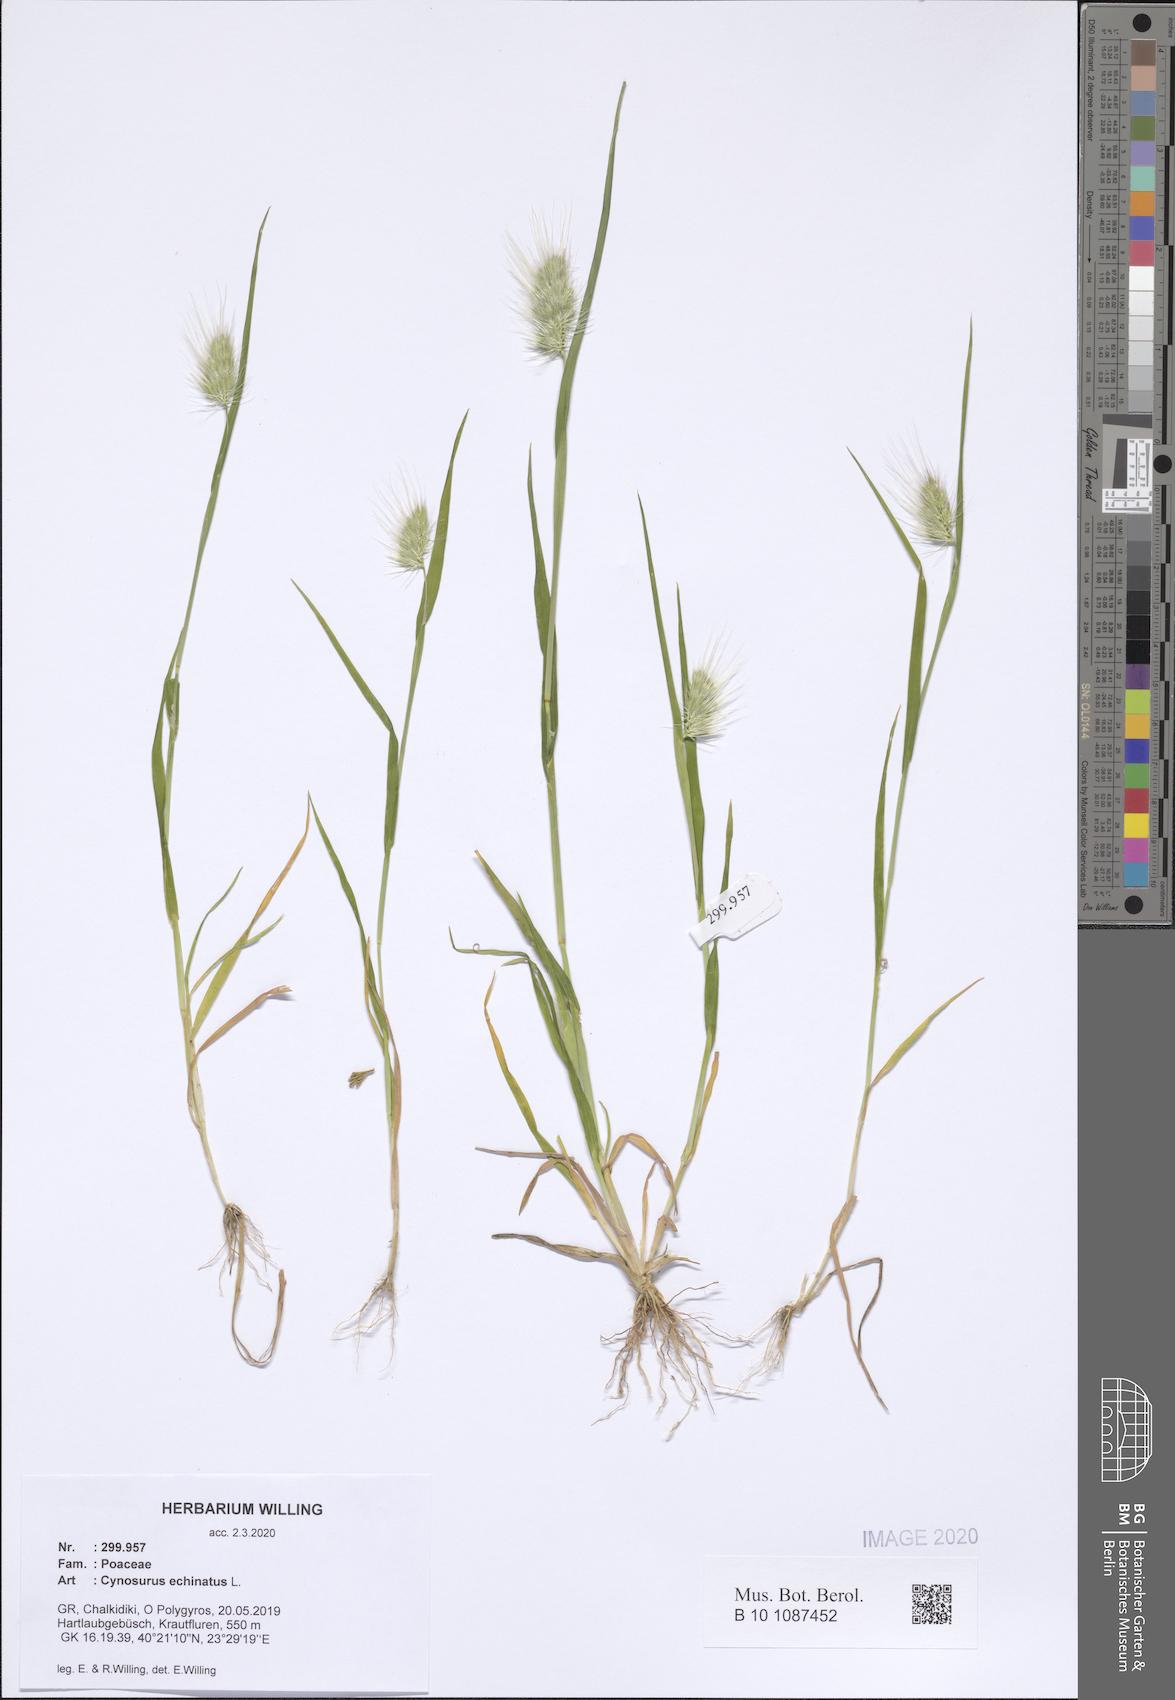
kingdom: Plantae
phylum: Tracheophyta
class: Liliopsida
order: Poales
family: Poaceae
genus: Cynosurus
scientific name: Cynosurus echinatus
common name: Rough dog's-tail
